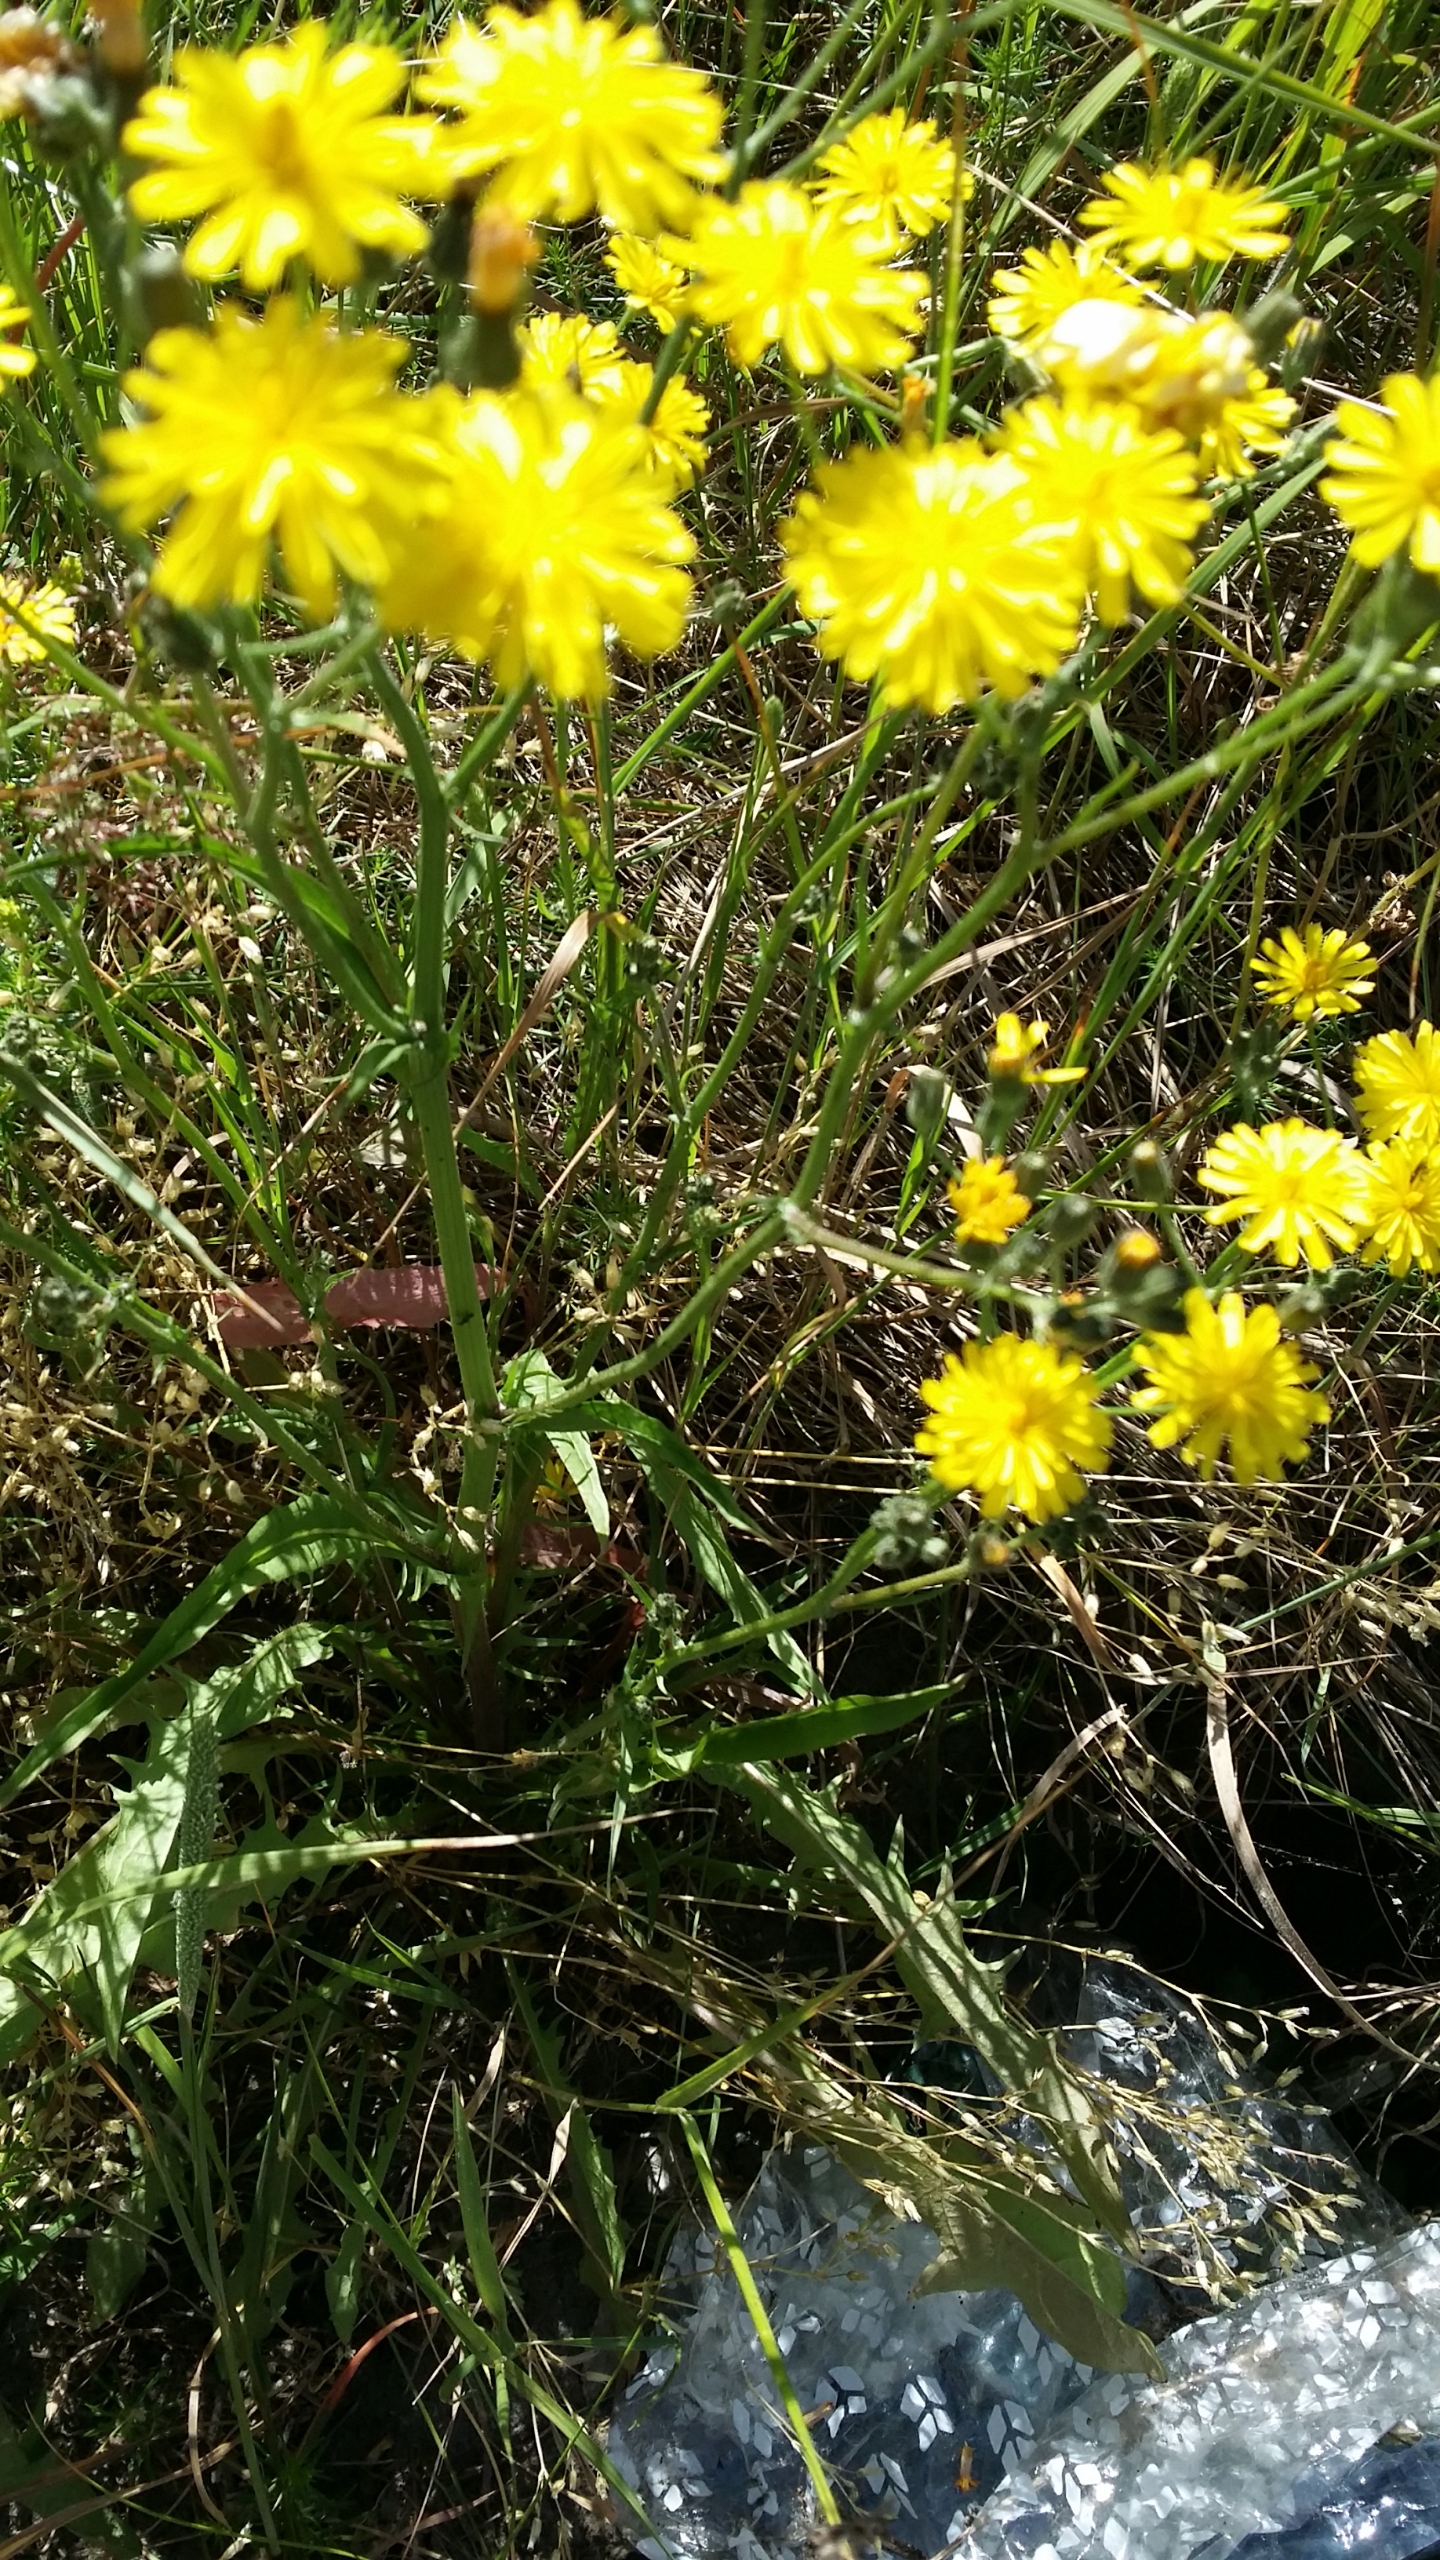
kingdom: Plantae
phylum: Tracheophyta
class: Magnoliopsida
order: Asterales
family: Asteraceae
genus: Crepis
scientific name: Crepis capillaris
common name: Grøn høgeskæg
